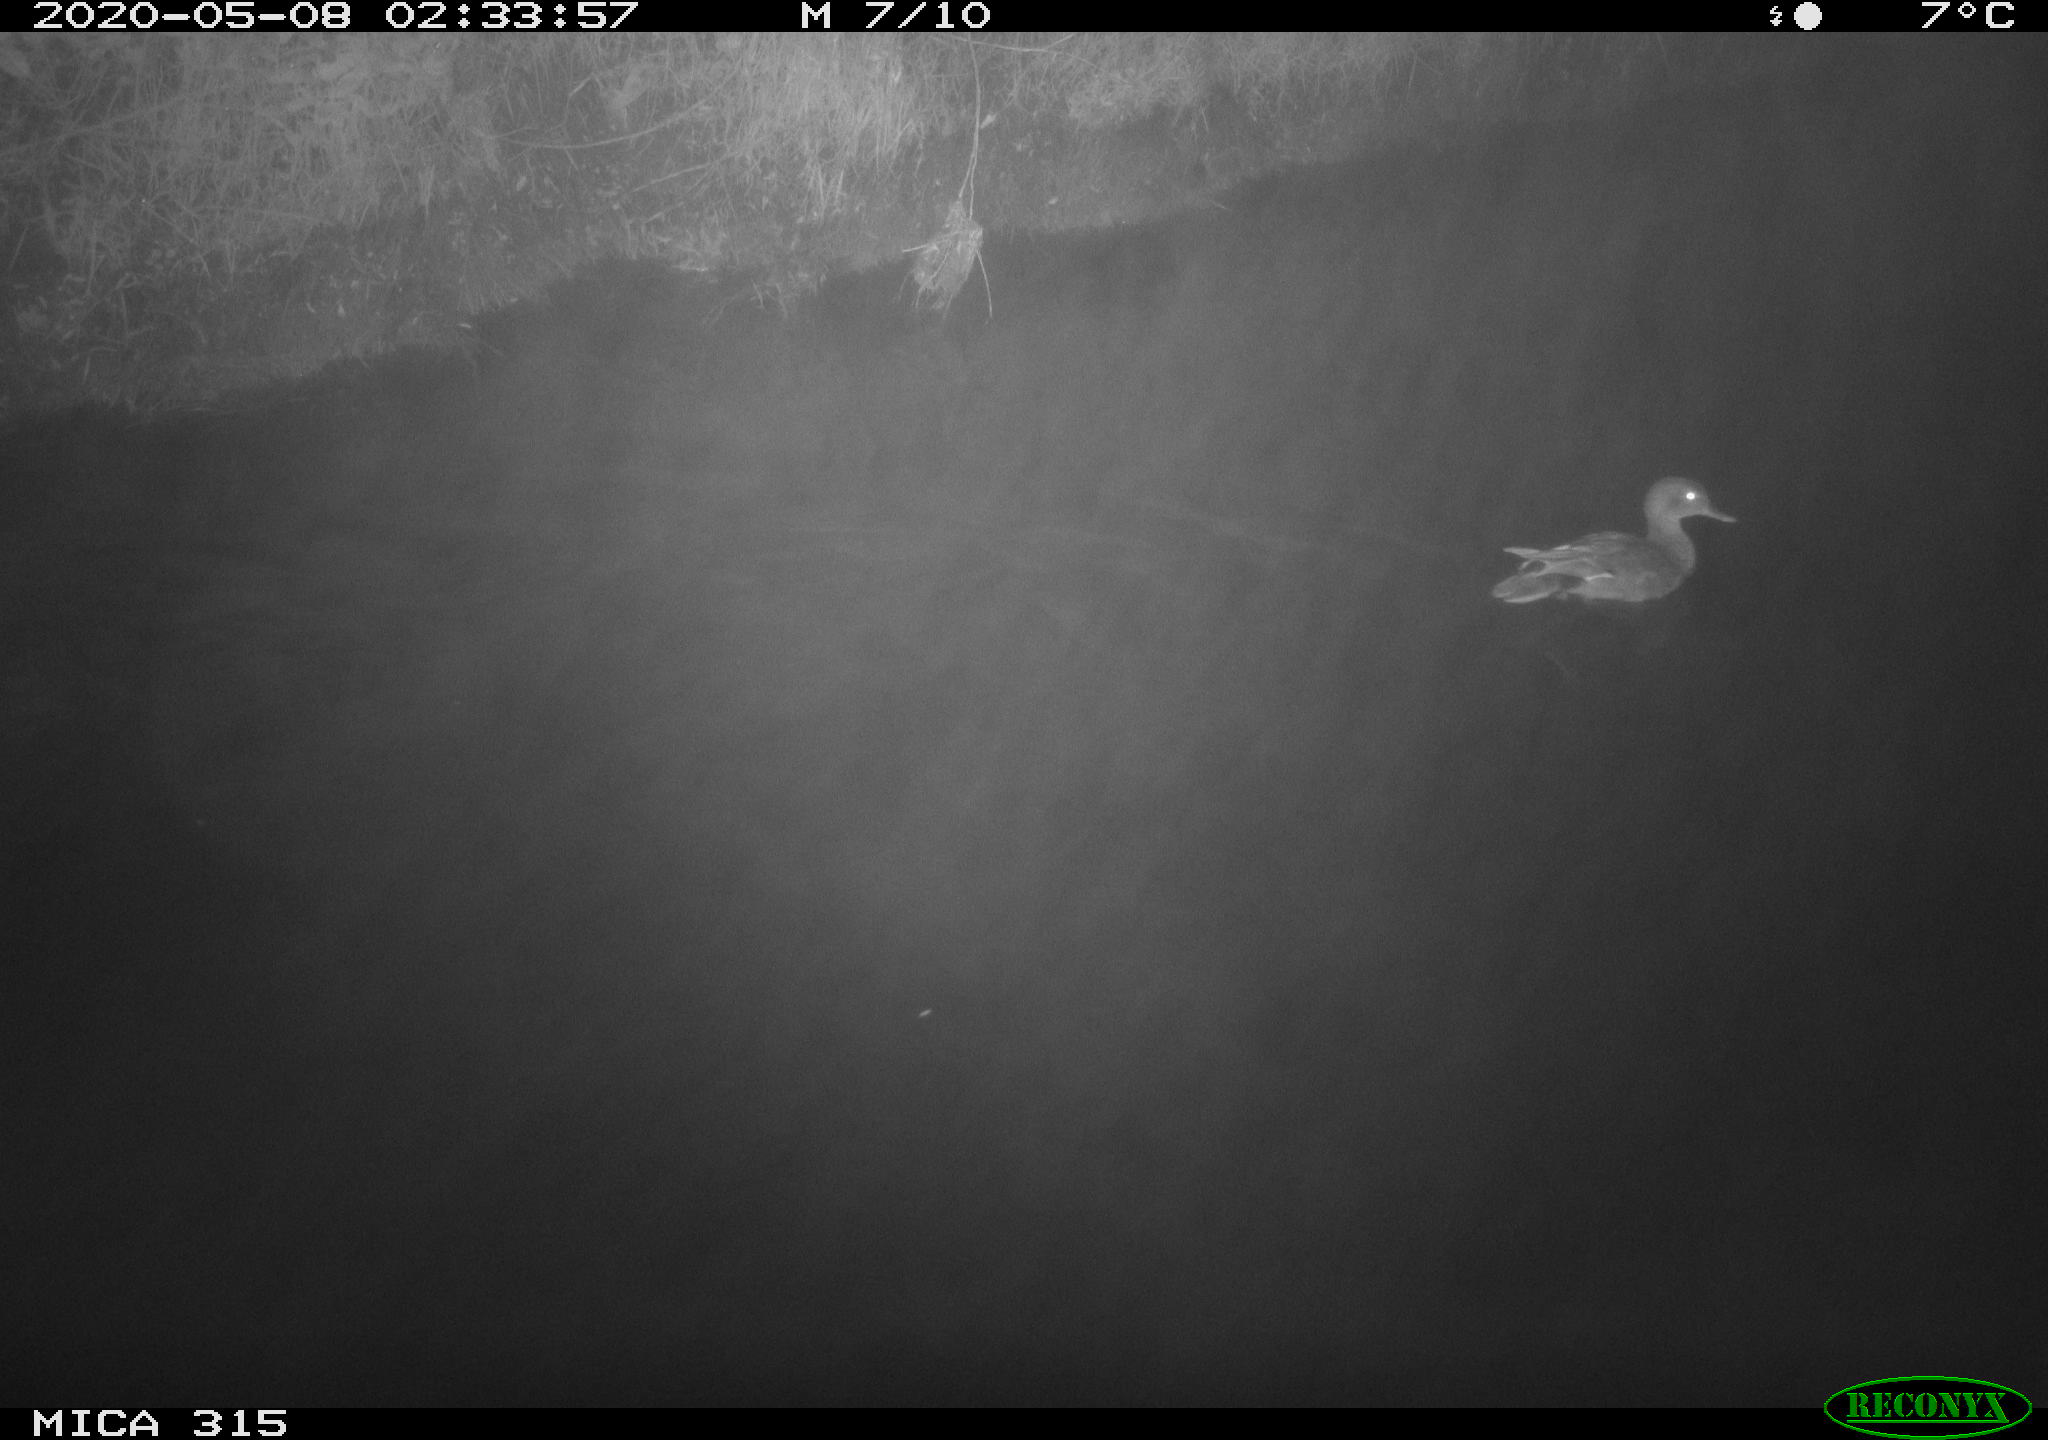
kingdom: Animalia
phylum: Chordata
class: Aves
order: Anseriformes
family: Anatidae
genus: Anas
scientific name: Anas platyrhynchos
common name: Mallard
